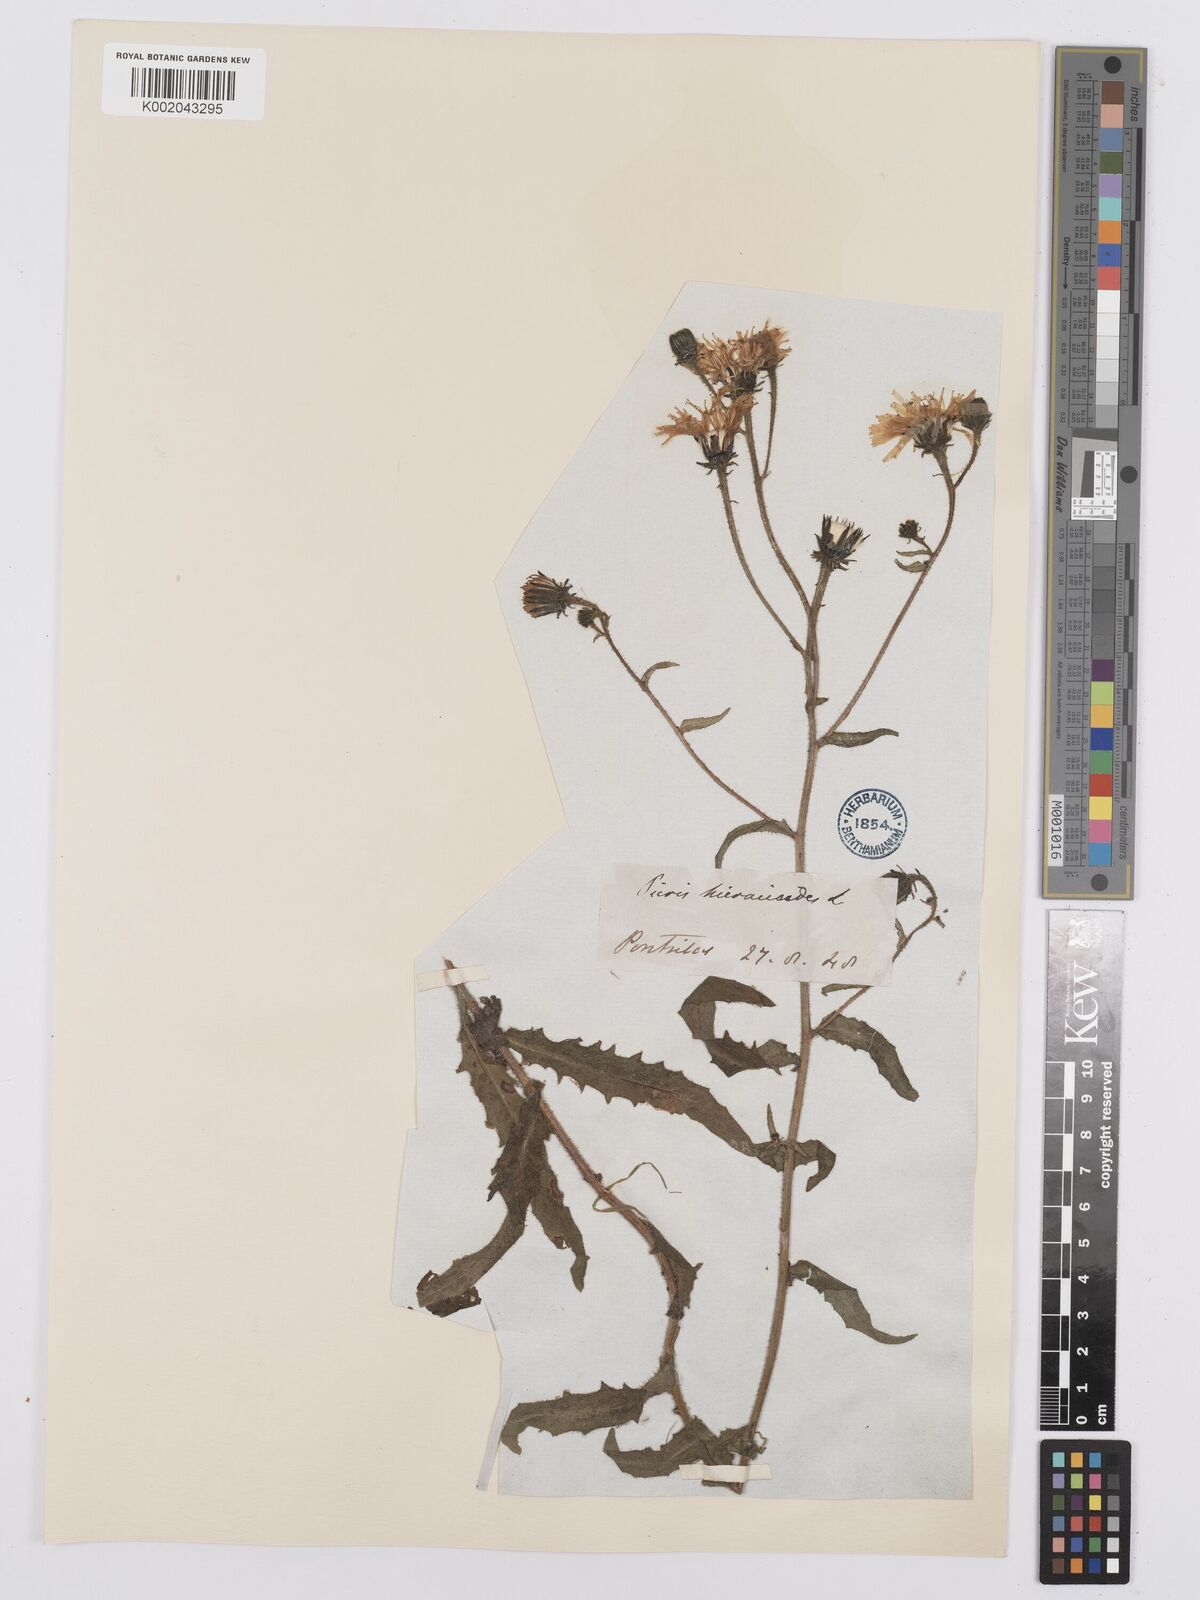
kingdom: Plantae
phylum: Tracheophyta
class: Magnoliopsida
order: Asterales
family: Asteraceae
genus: Picris
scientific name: Picris hieracioides
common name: Hawkweed oxtongue
